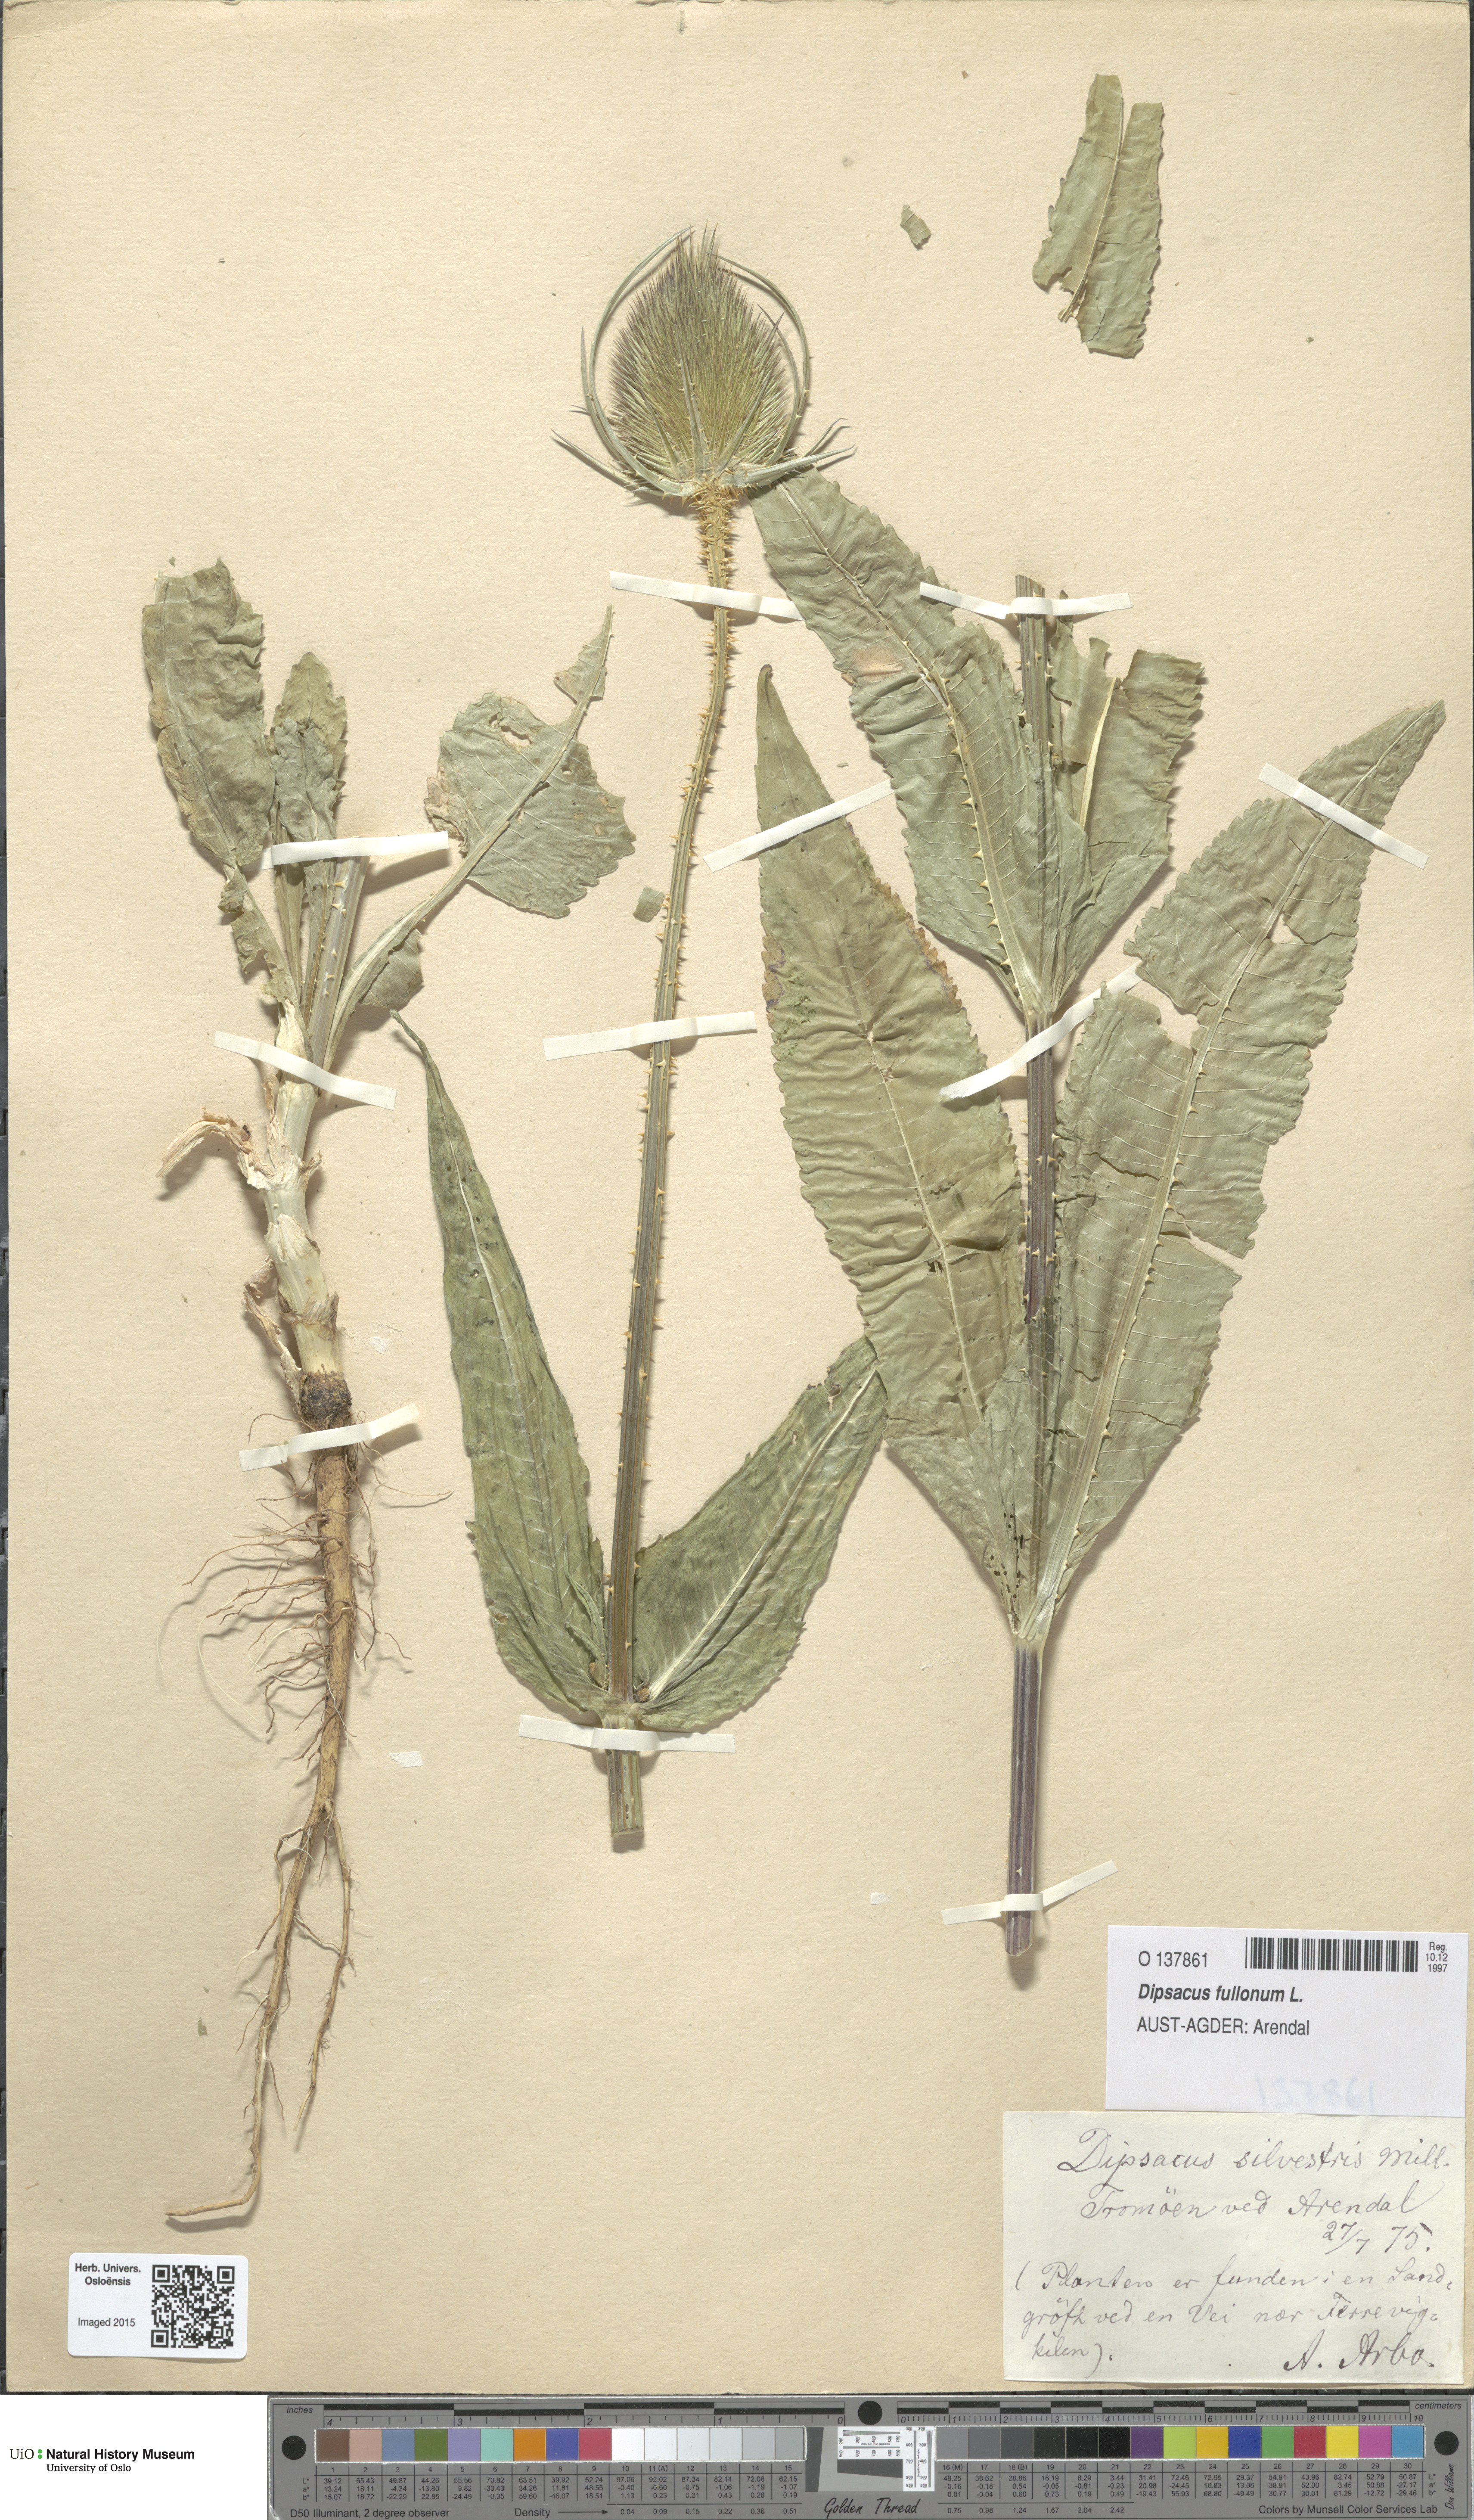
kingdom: Plantae
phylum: Tracheophyta
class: Magnoliopsida
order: Dipsacales
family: Caprifoliaceae
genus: Dipsacus
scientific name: Dipsacus fullonum
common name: Teasel
